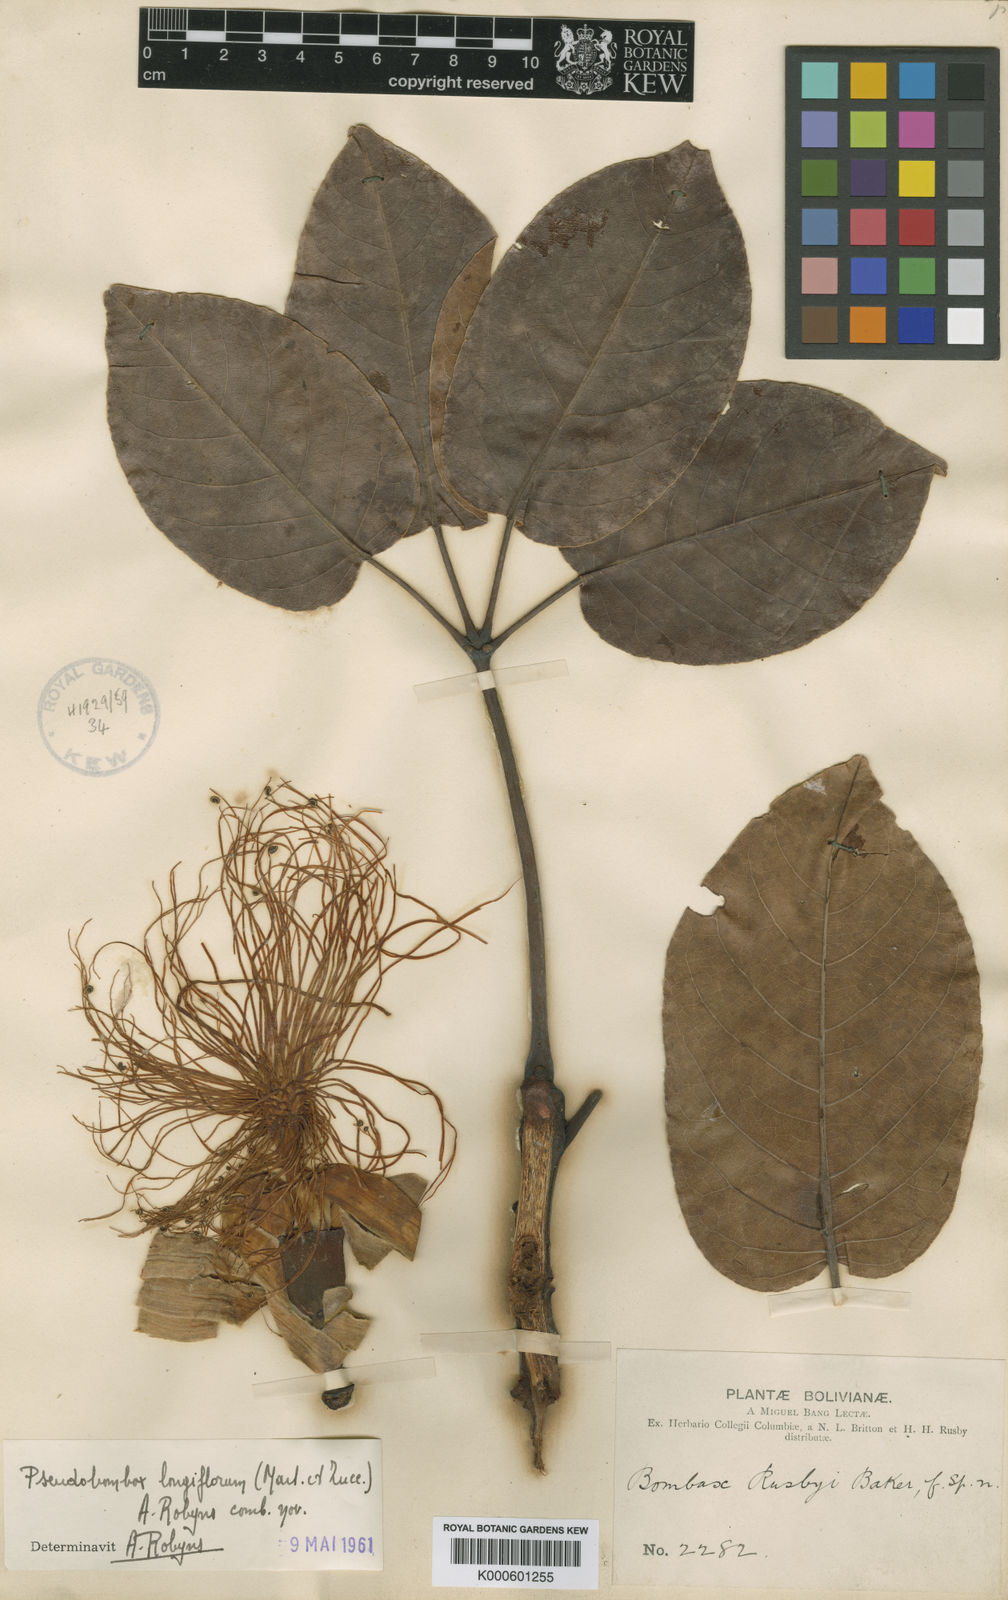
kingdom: Plantae
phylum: Tracheophyta
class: Magnoliopsida
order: Malvales
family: Malvaceae
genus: Pseudobombax
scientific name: Pseudobombax longiflorum
